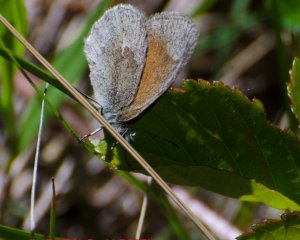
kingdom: Animalia
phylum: Arthropoda
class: Insecta
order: Lepidoptera
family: Nymphalidae
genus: Coenonympha
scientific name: Coenonympha tullia
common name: Large Heath
